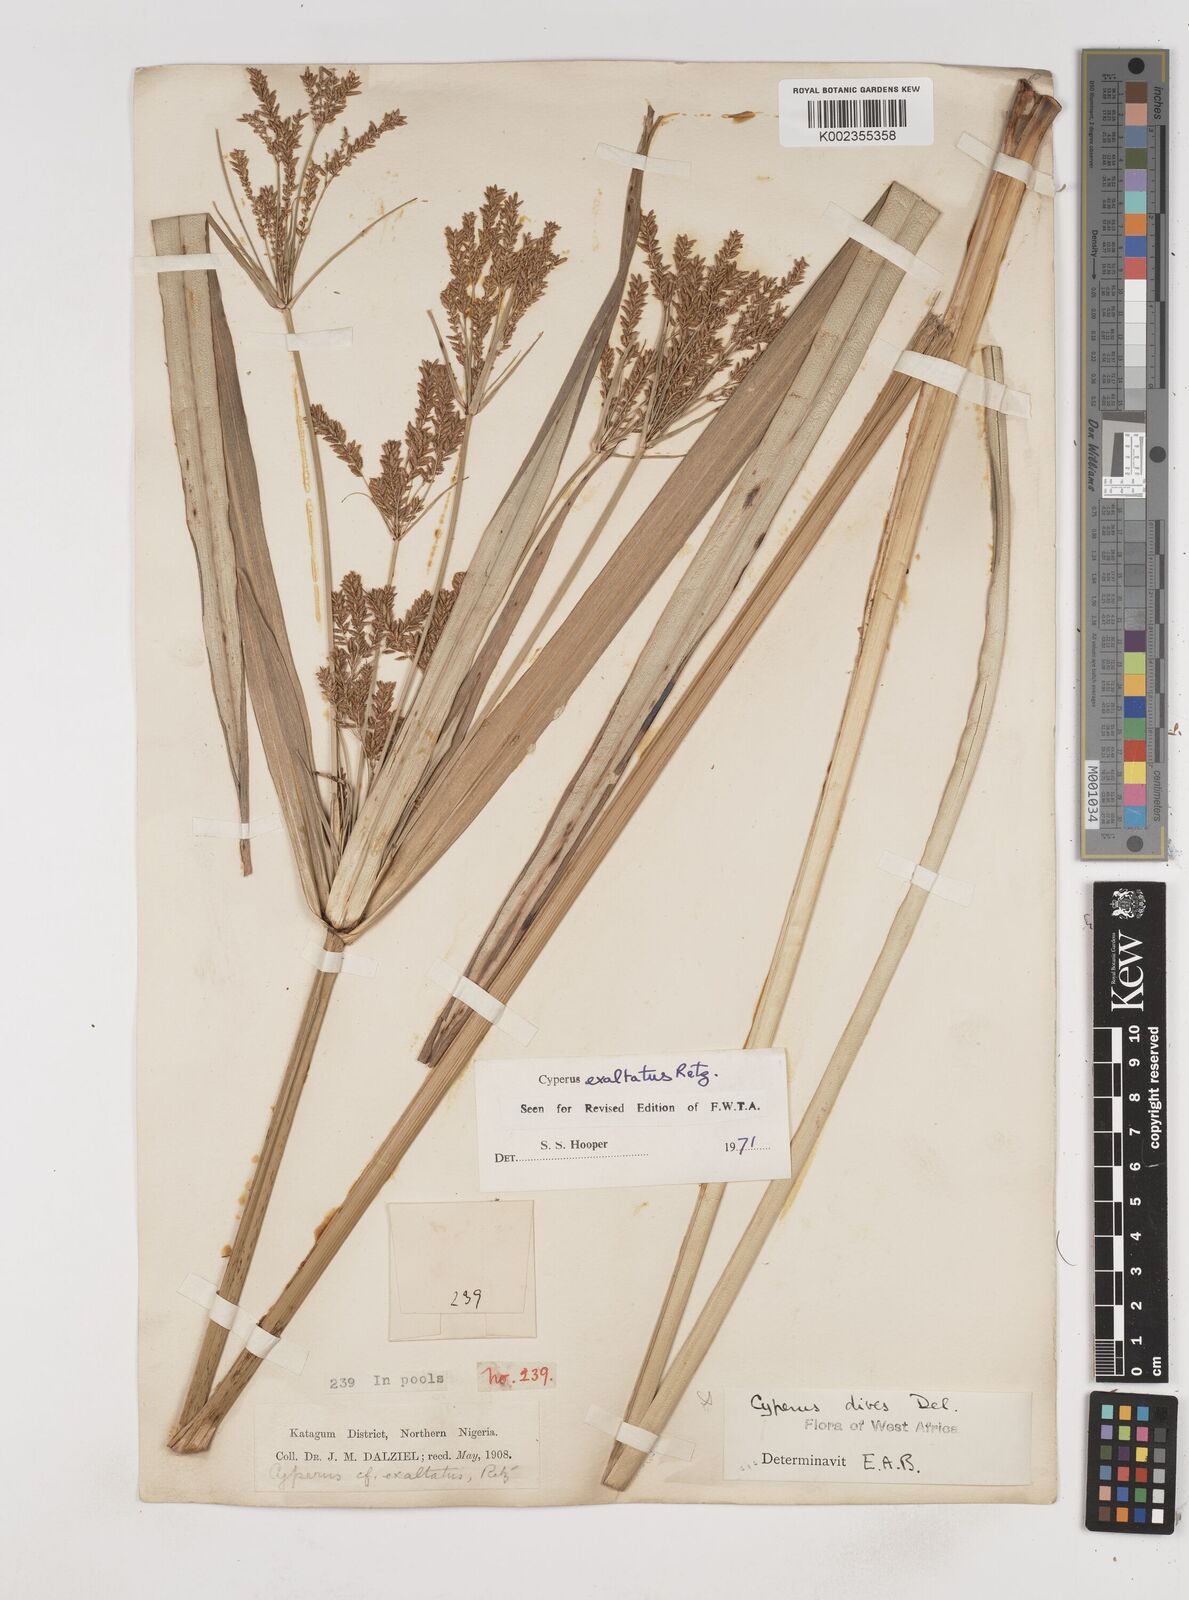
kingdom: Plantae
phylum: Tracheophyta
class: Liliopsida
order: Poales
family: Cyperaceae
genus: Cyperus
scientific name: Cyperus exaltatus
